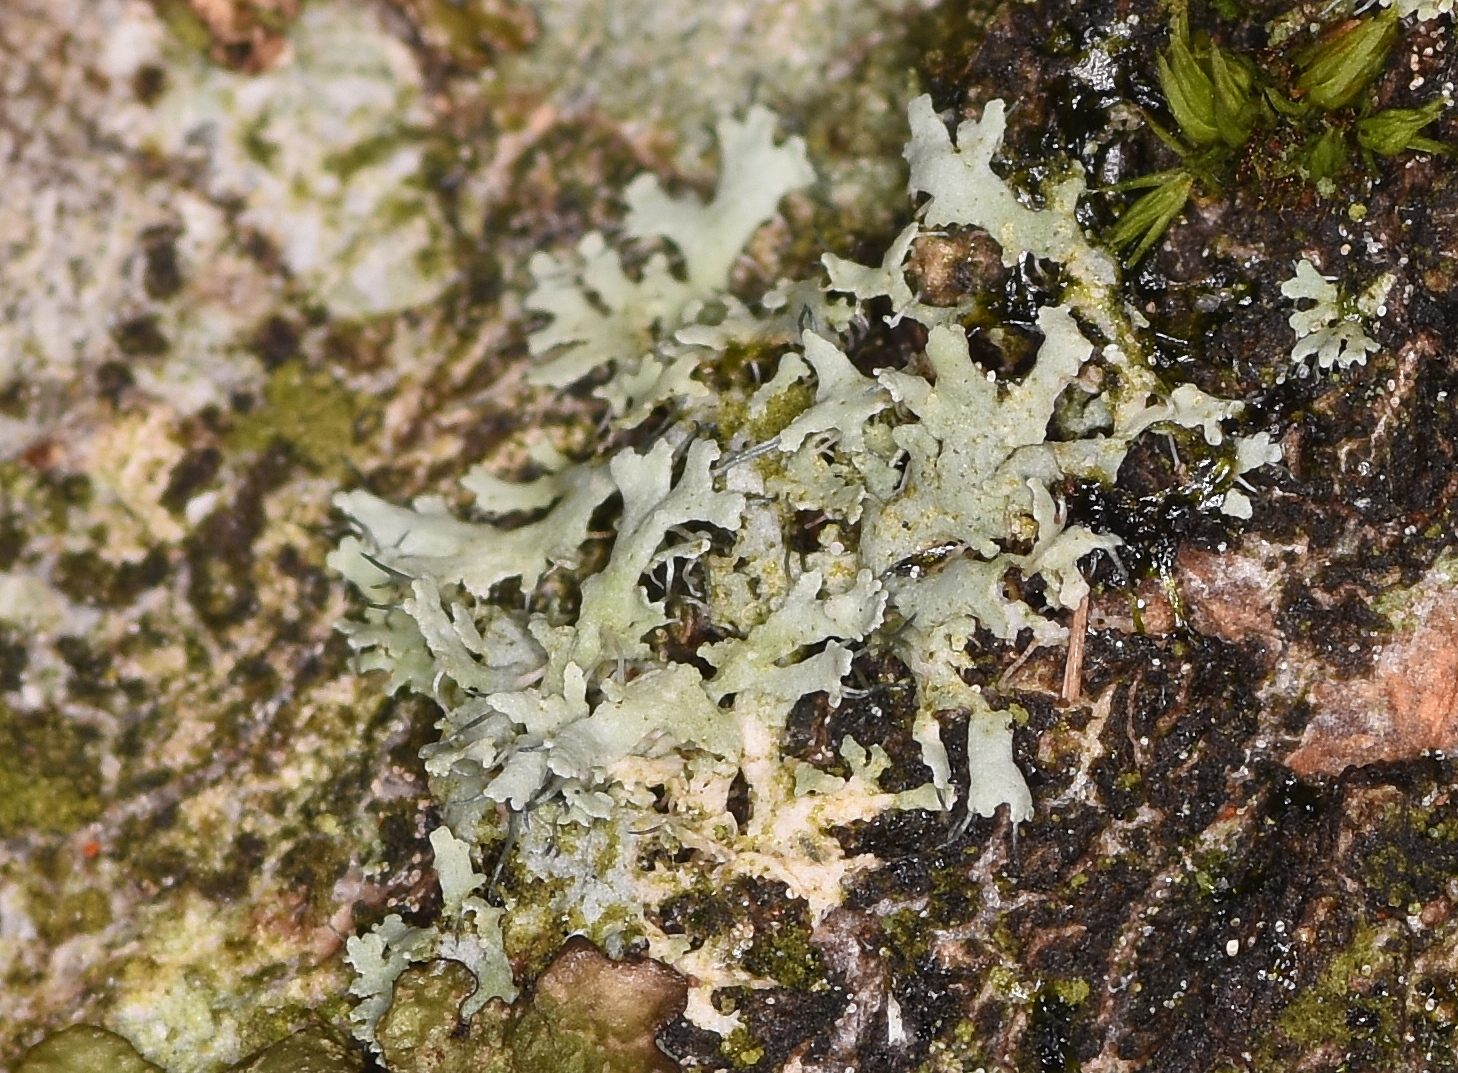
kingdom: Fungi
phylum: Ascomycota
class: Lecanoromycetes
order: Caliciales
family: Physciaceae
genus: Physcia
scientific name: Physcia tenella
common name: spæd rosetlav
